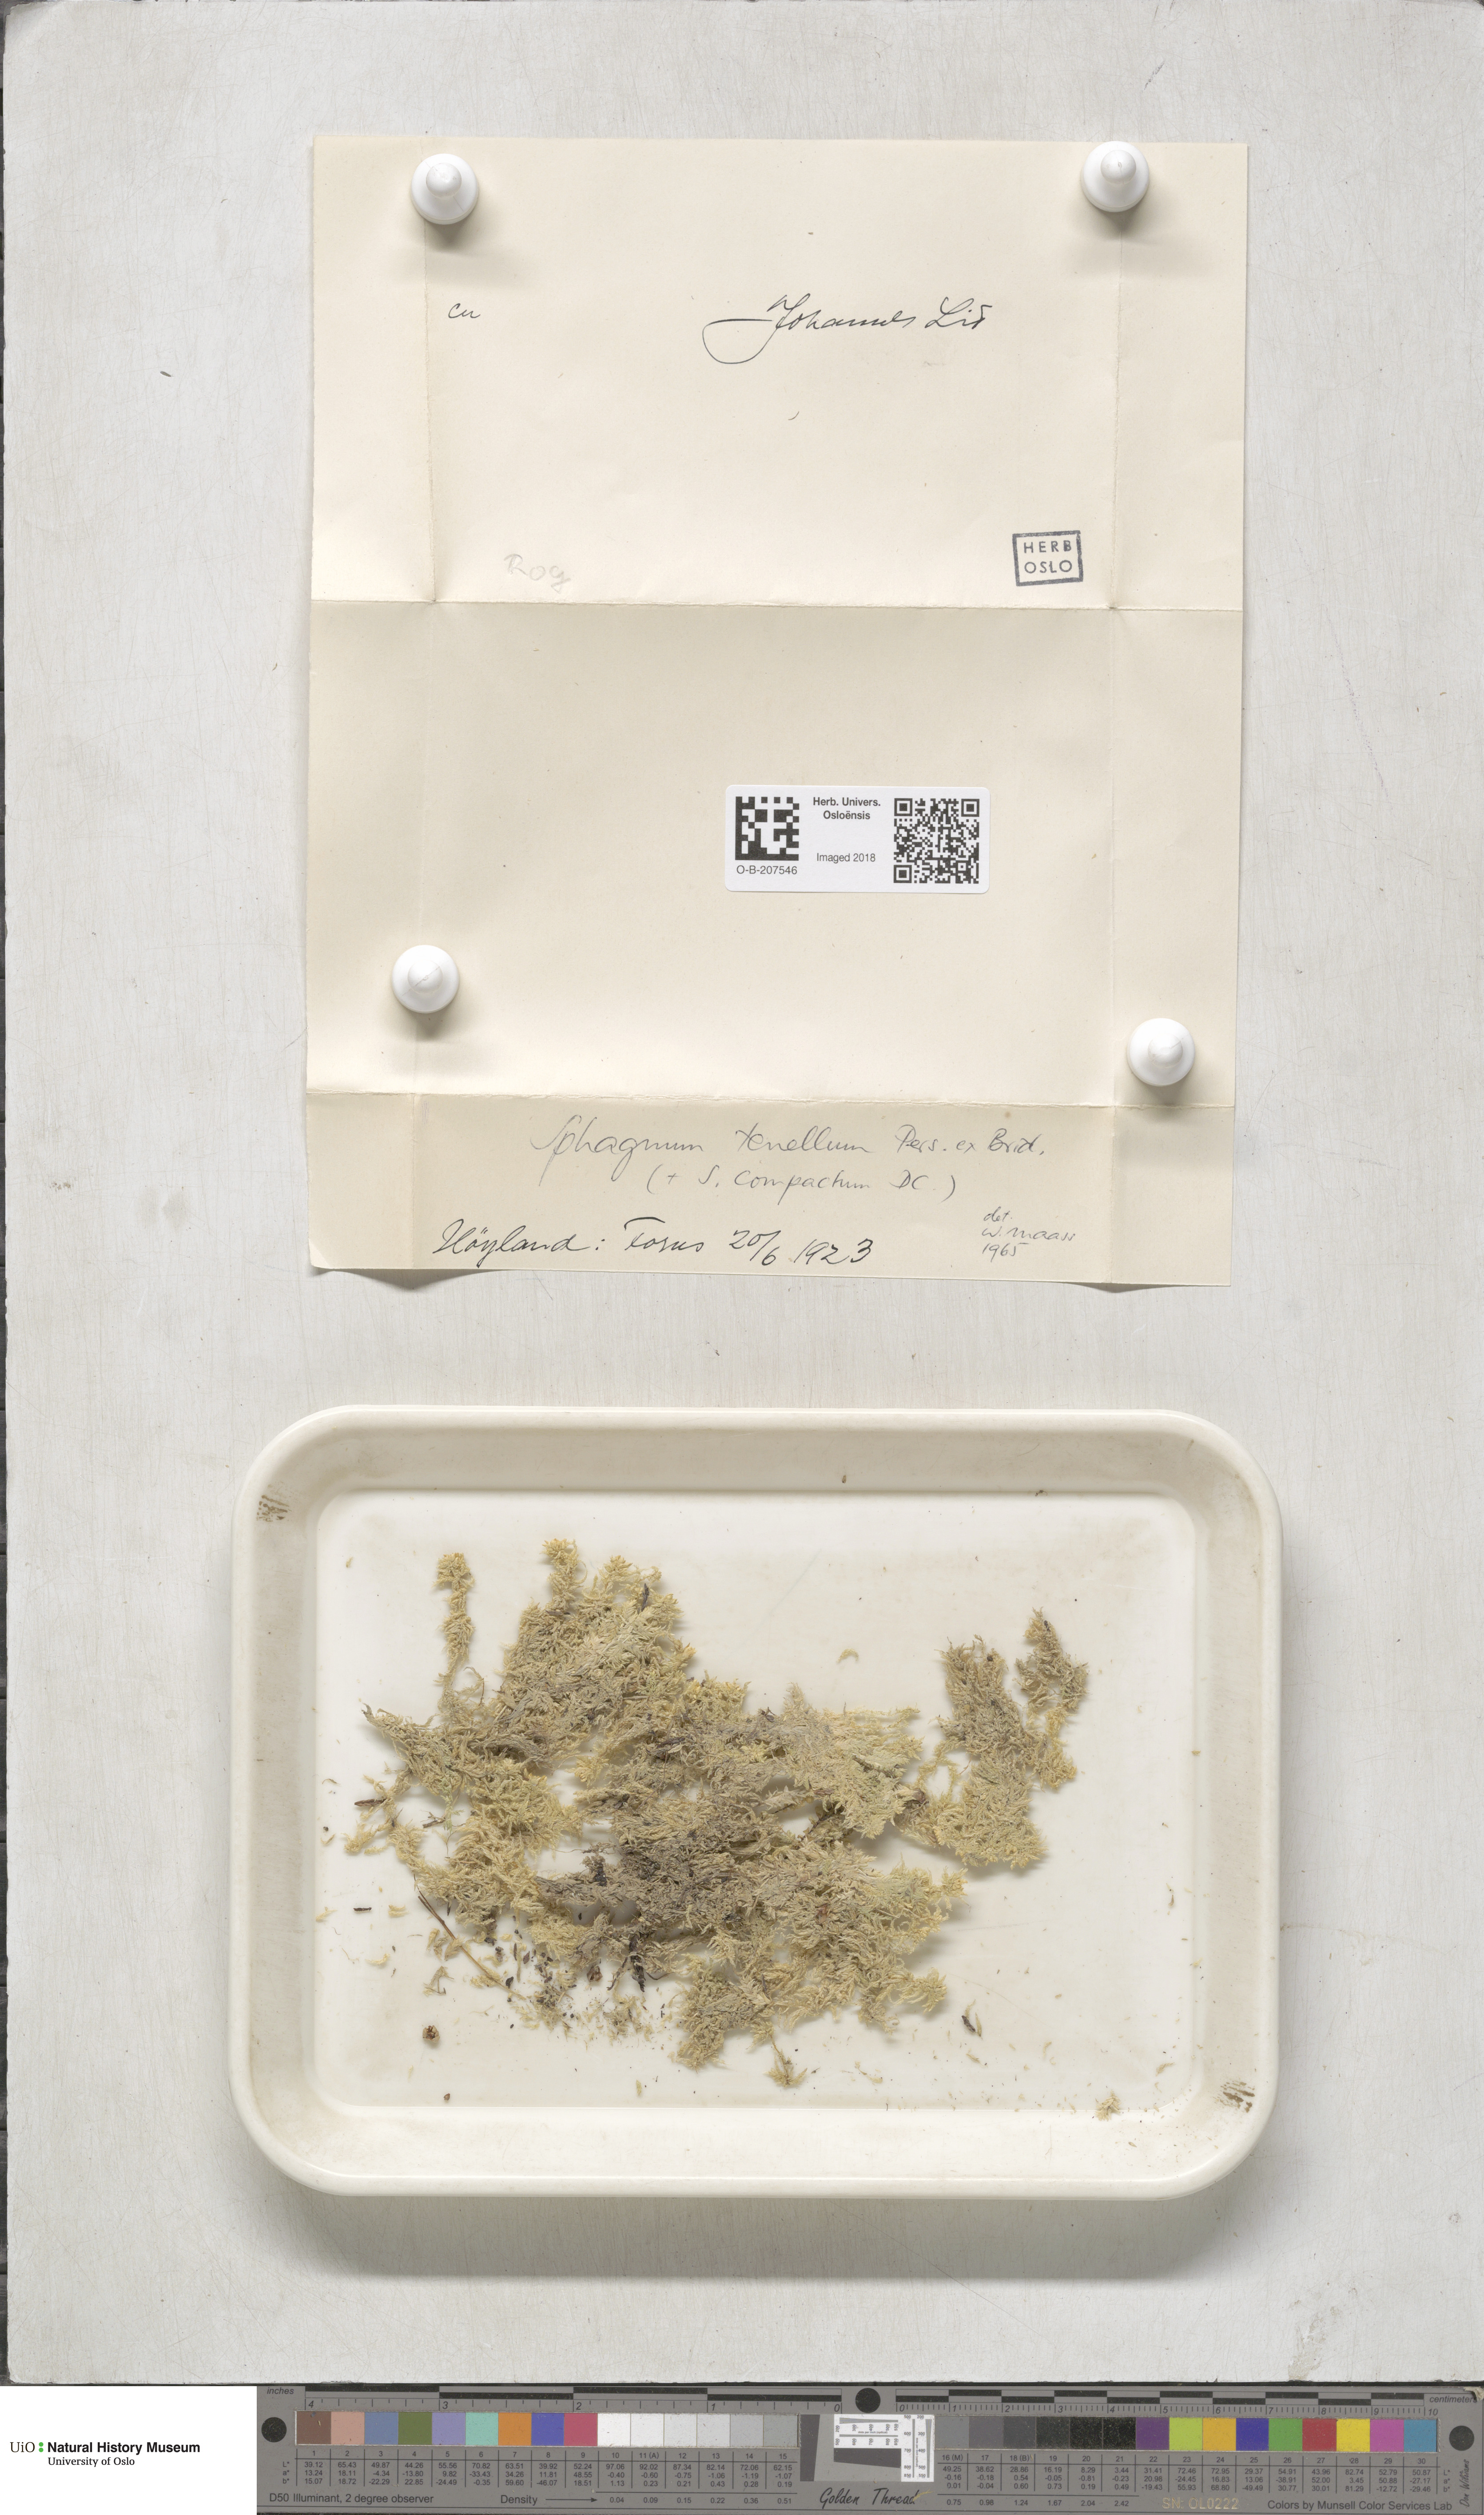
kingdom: Plantae
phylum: Bryophyta
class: Sphagnopsida
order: Sphagnales
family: Sphagnaceae
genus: Sphagnum
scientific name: Sphagnum tenellum
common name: Soft bog-moss
